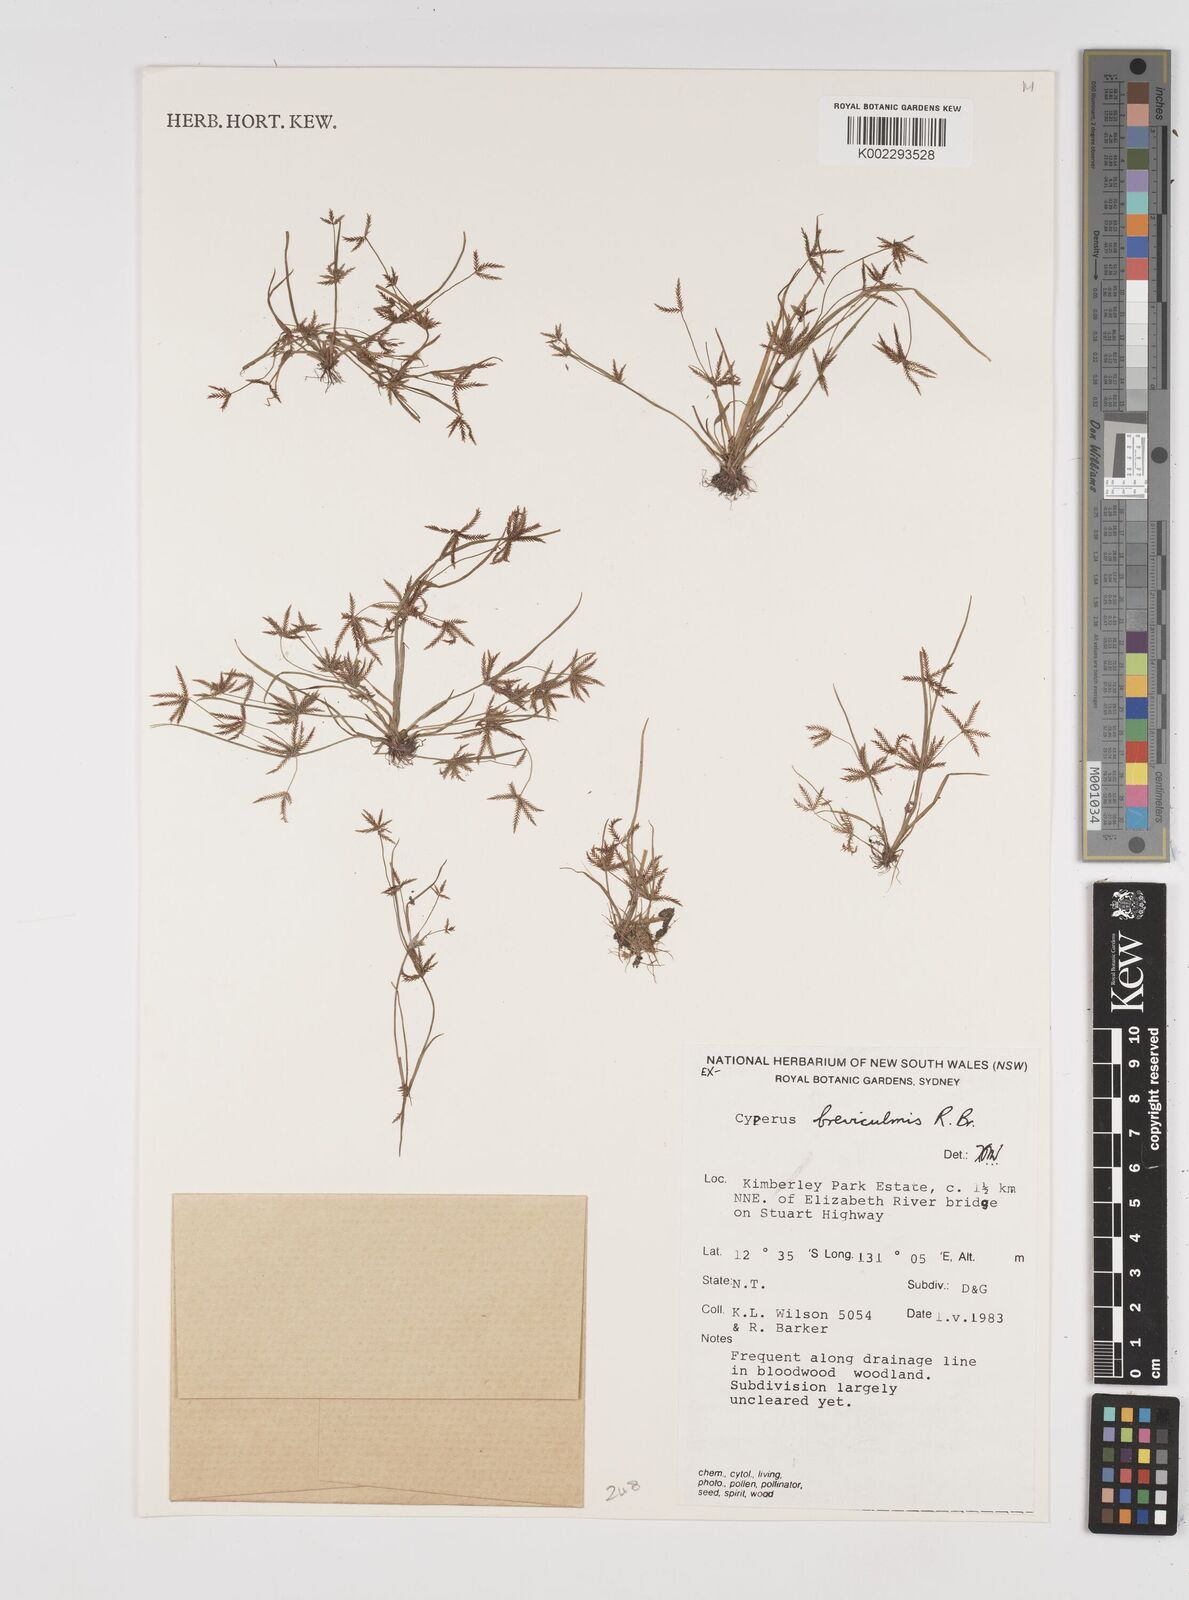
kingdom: Plantae
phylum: Tracheophyta
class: Liliopsida
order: Poales
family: Cyperaceae
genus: Cyperus
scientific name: Cyperus breviculmis
